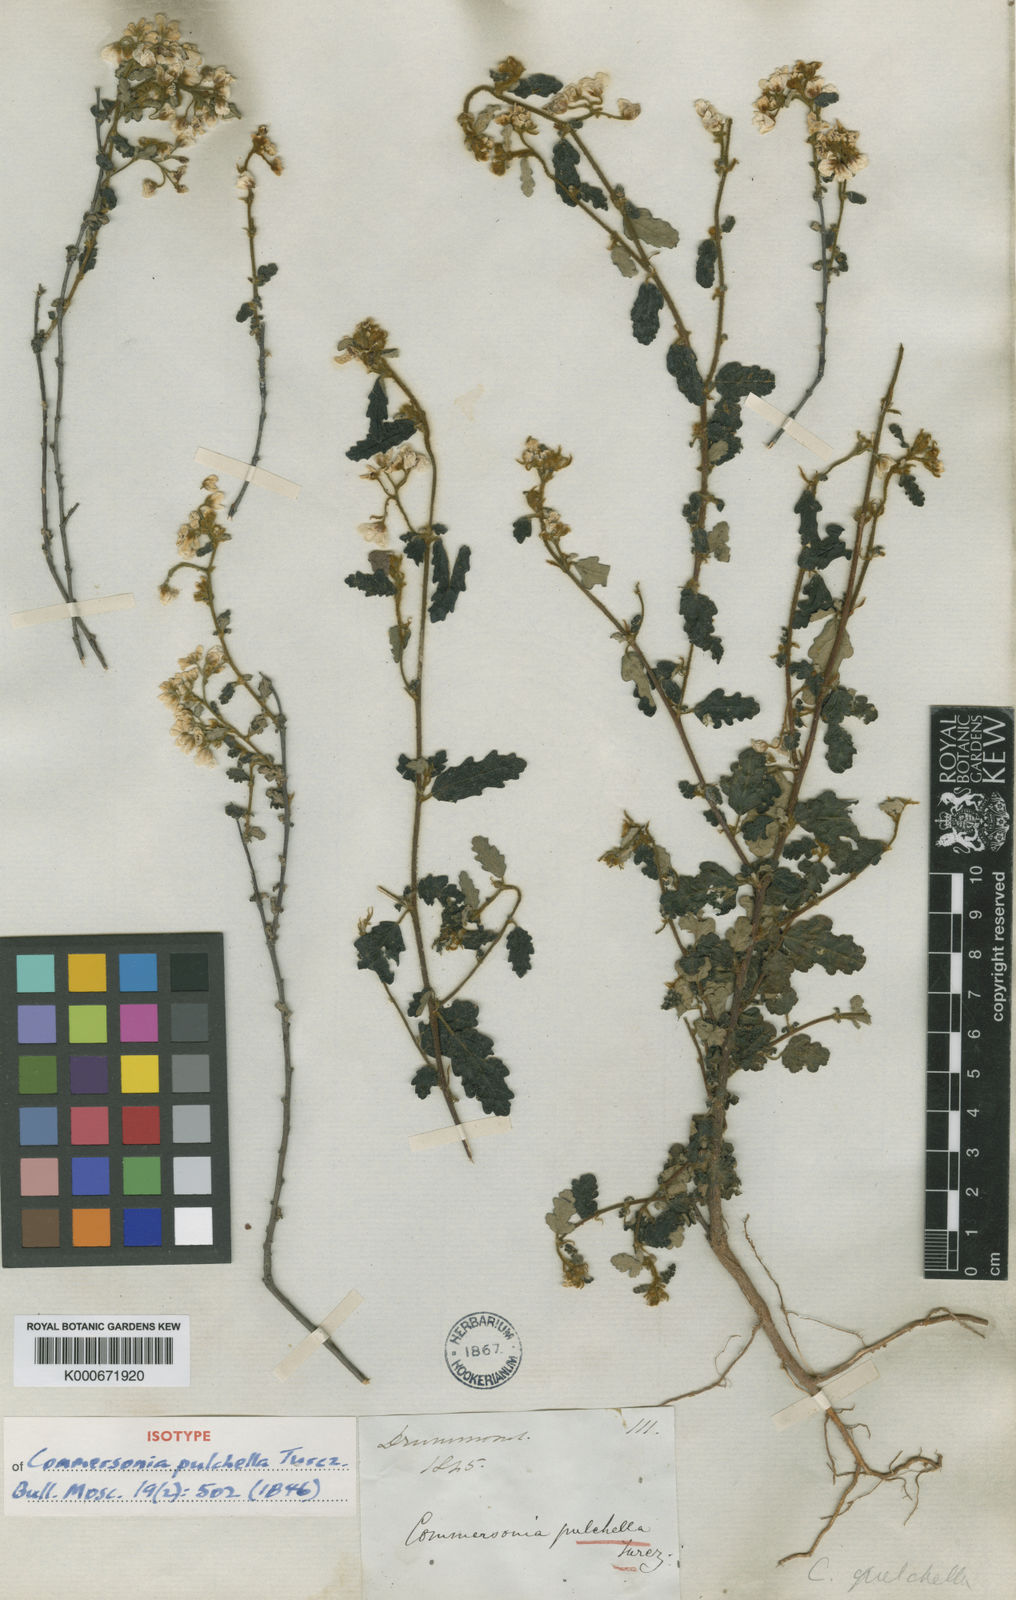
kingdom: Plantae
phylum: Tracheophyta
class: Magnoliopsida
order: Malvales
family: Malvaceae
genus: Androcalva
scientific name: Androcalva pulchella
